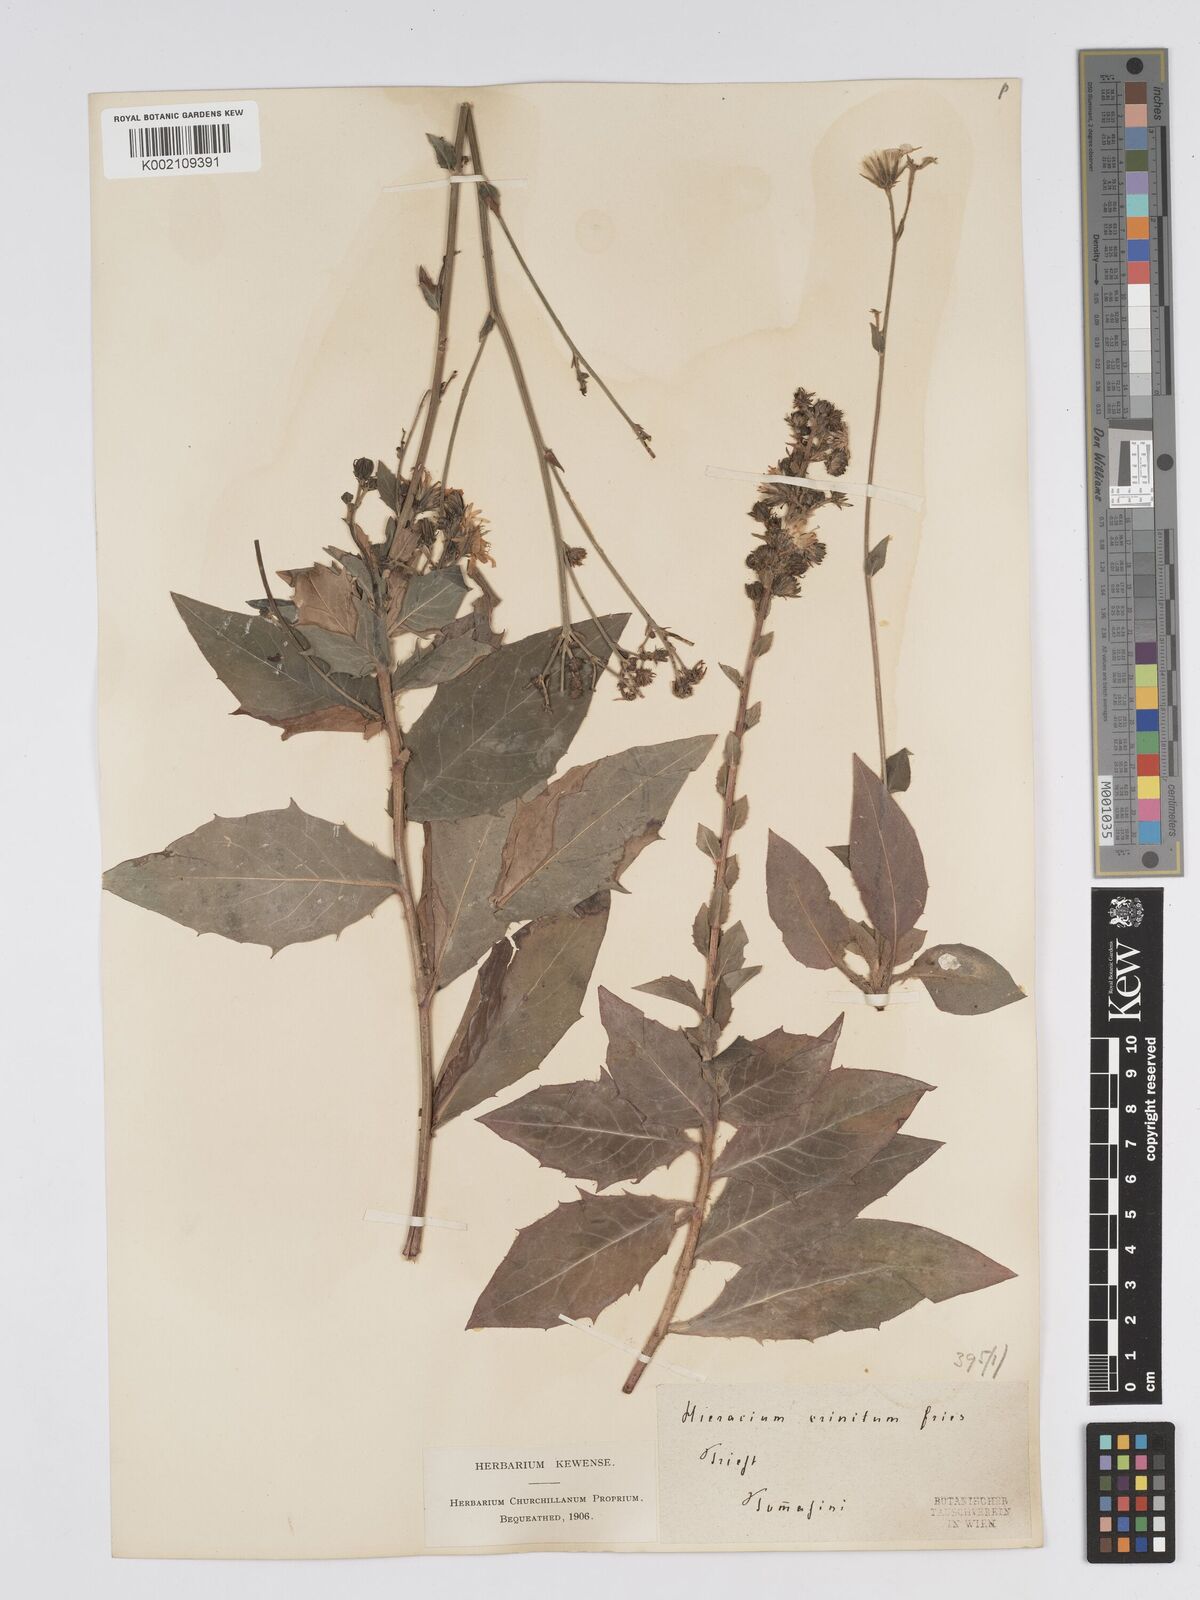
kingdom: Plantae
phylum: Tracheophyta
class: Magnoliopsida
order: Asterales
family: Asteraceae
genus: Hieracium
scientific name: Hieracium racemosum
